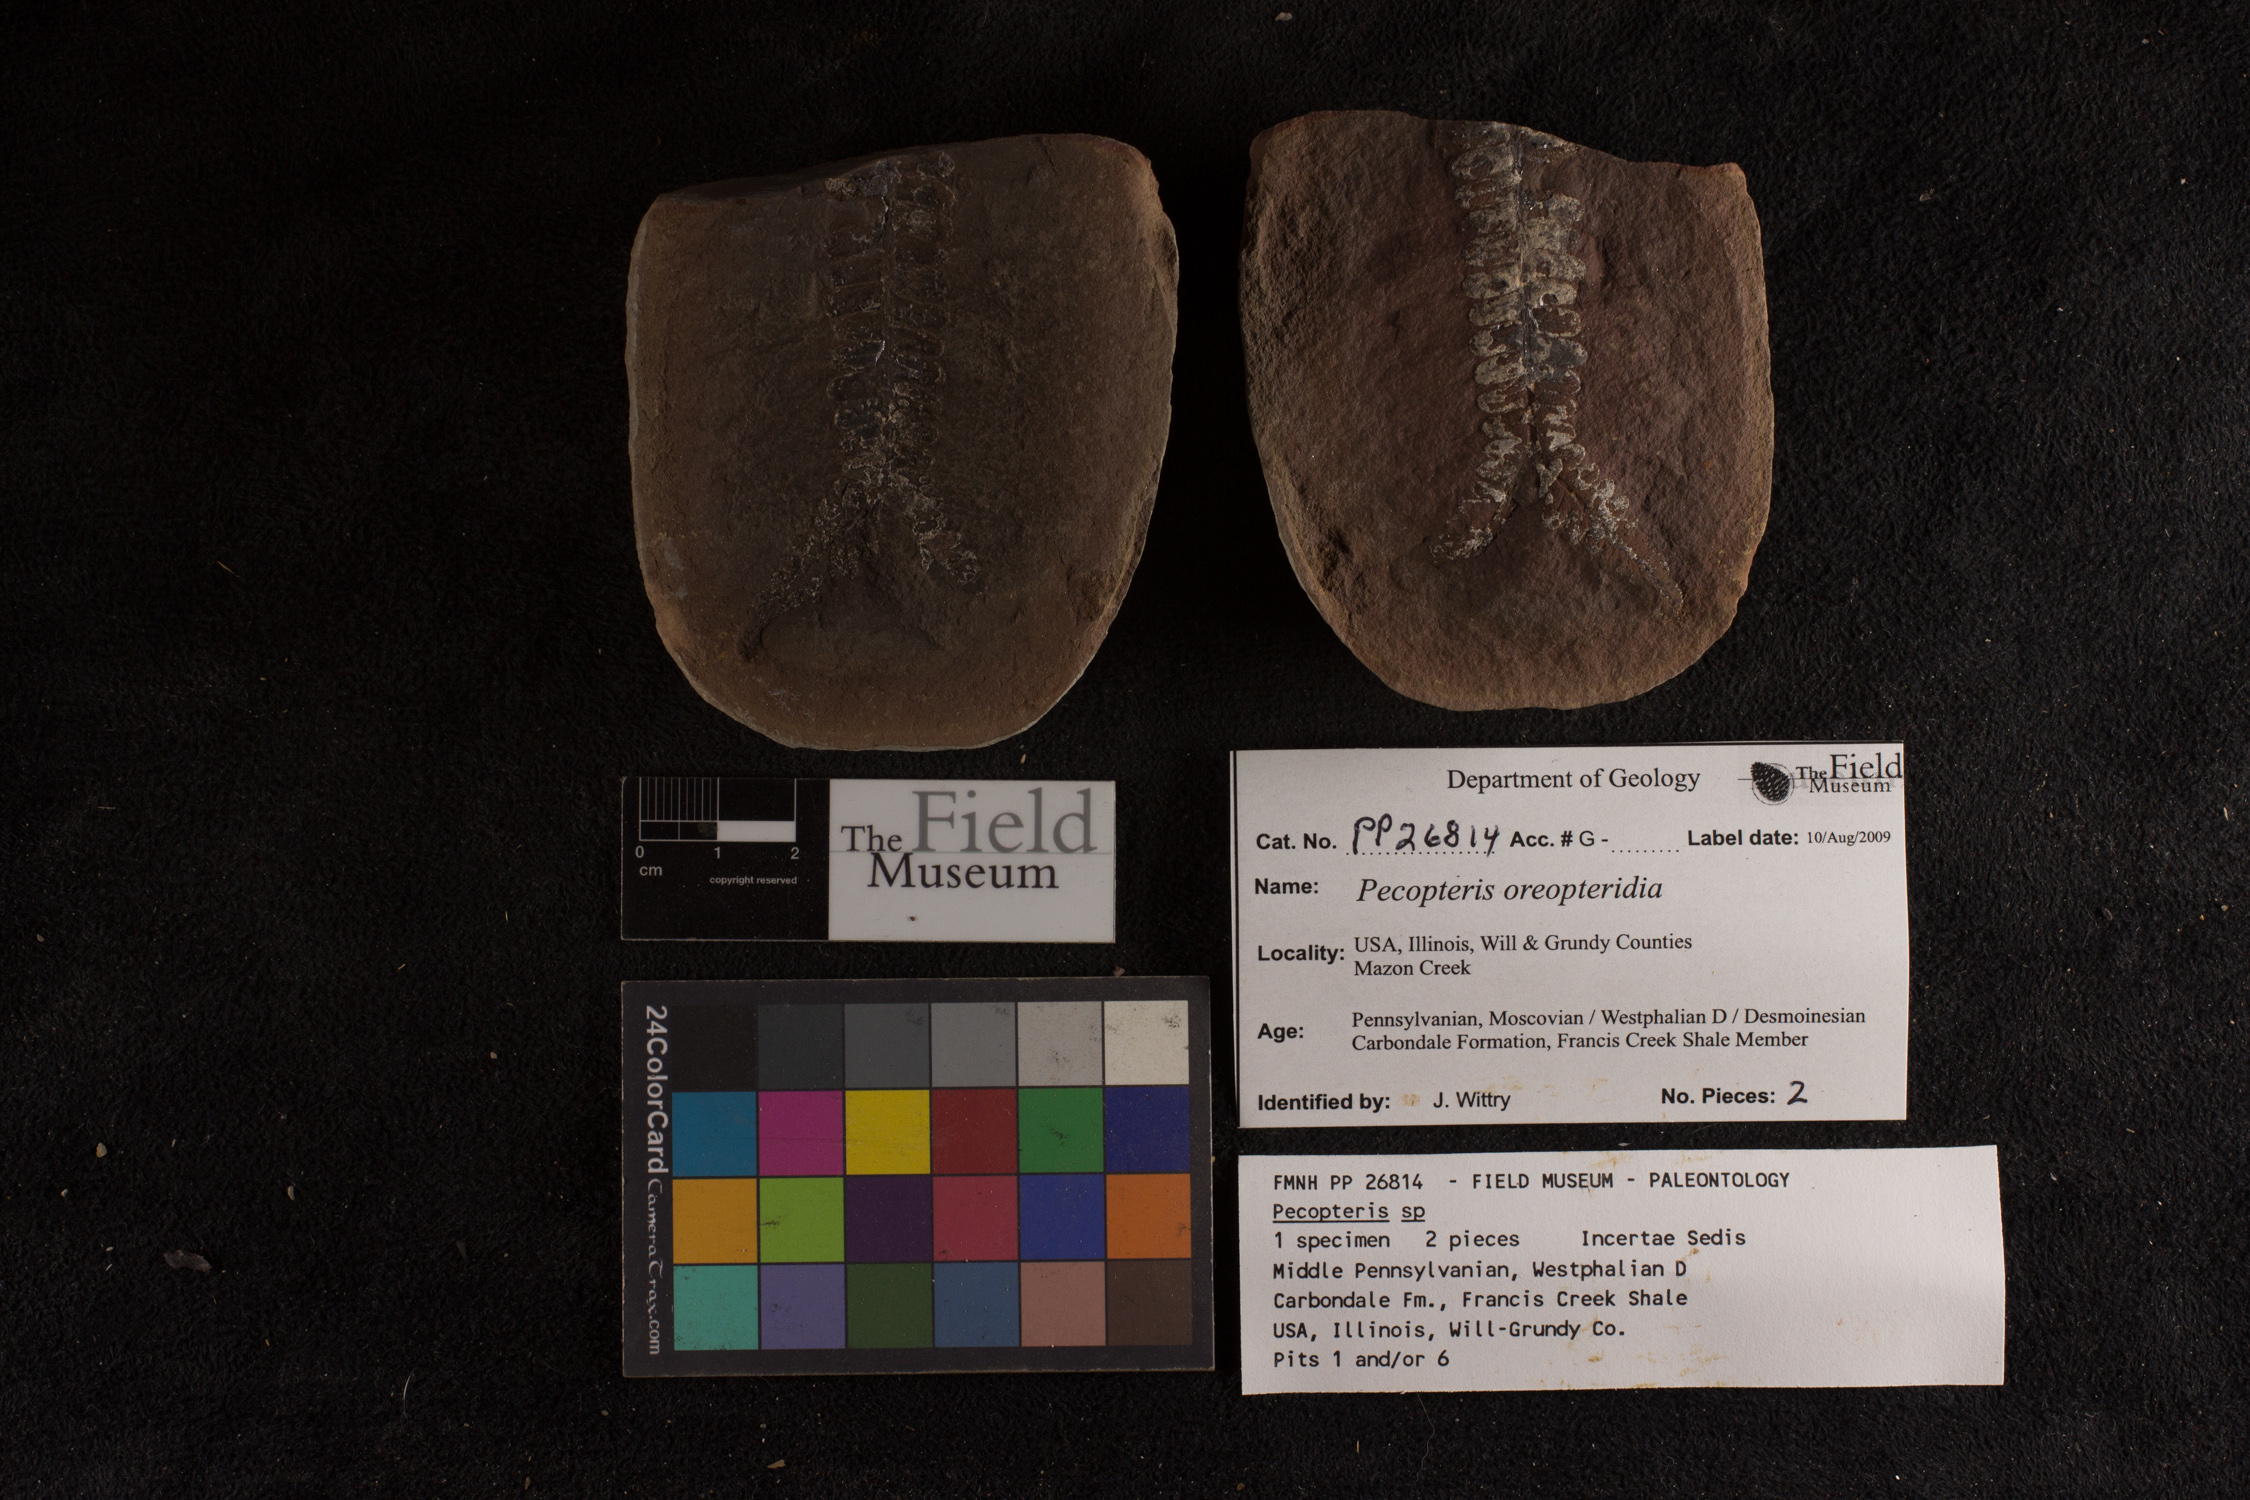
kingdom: Plantae
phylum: Tracheophyta
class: Polypodiopsida
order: Marattiales
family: Asterothecaceae
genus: Pecopteris
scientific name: Pecopteris
